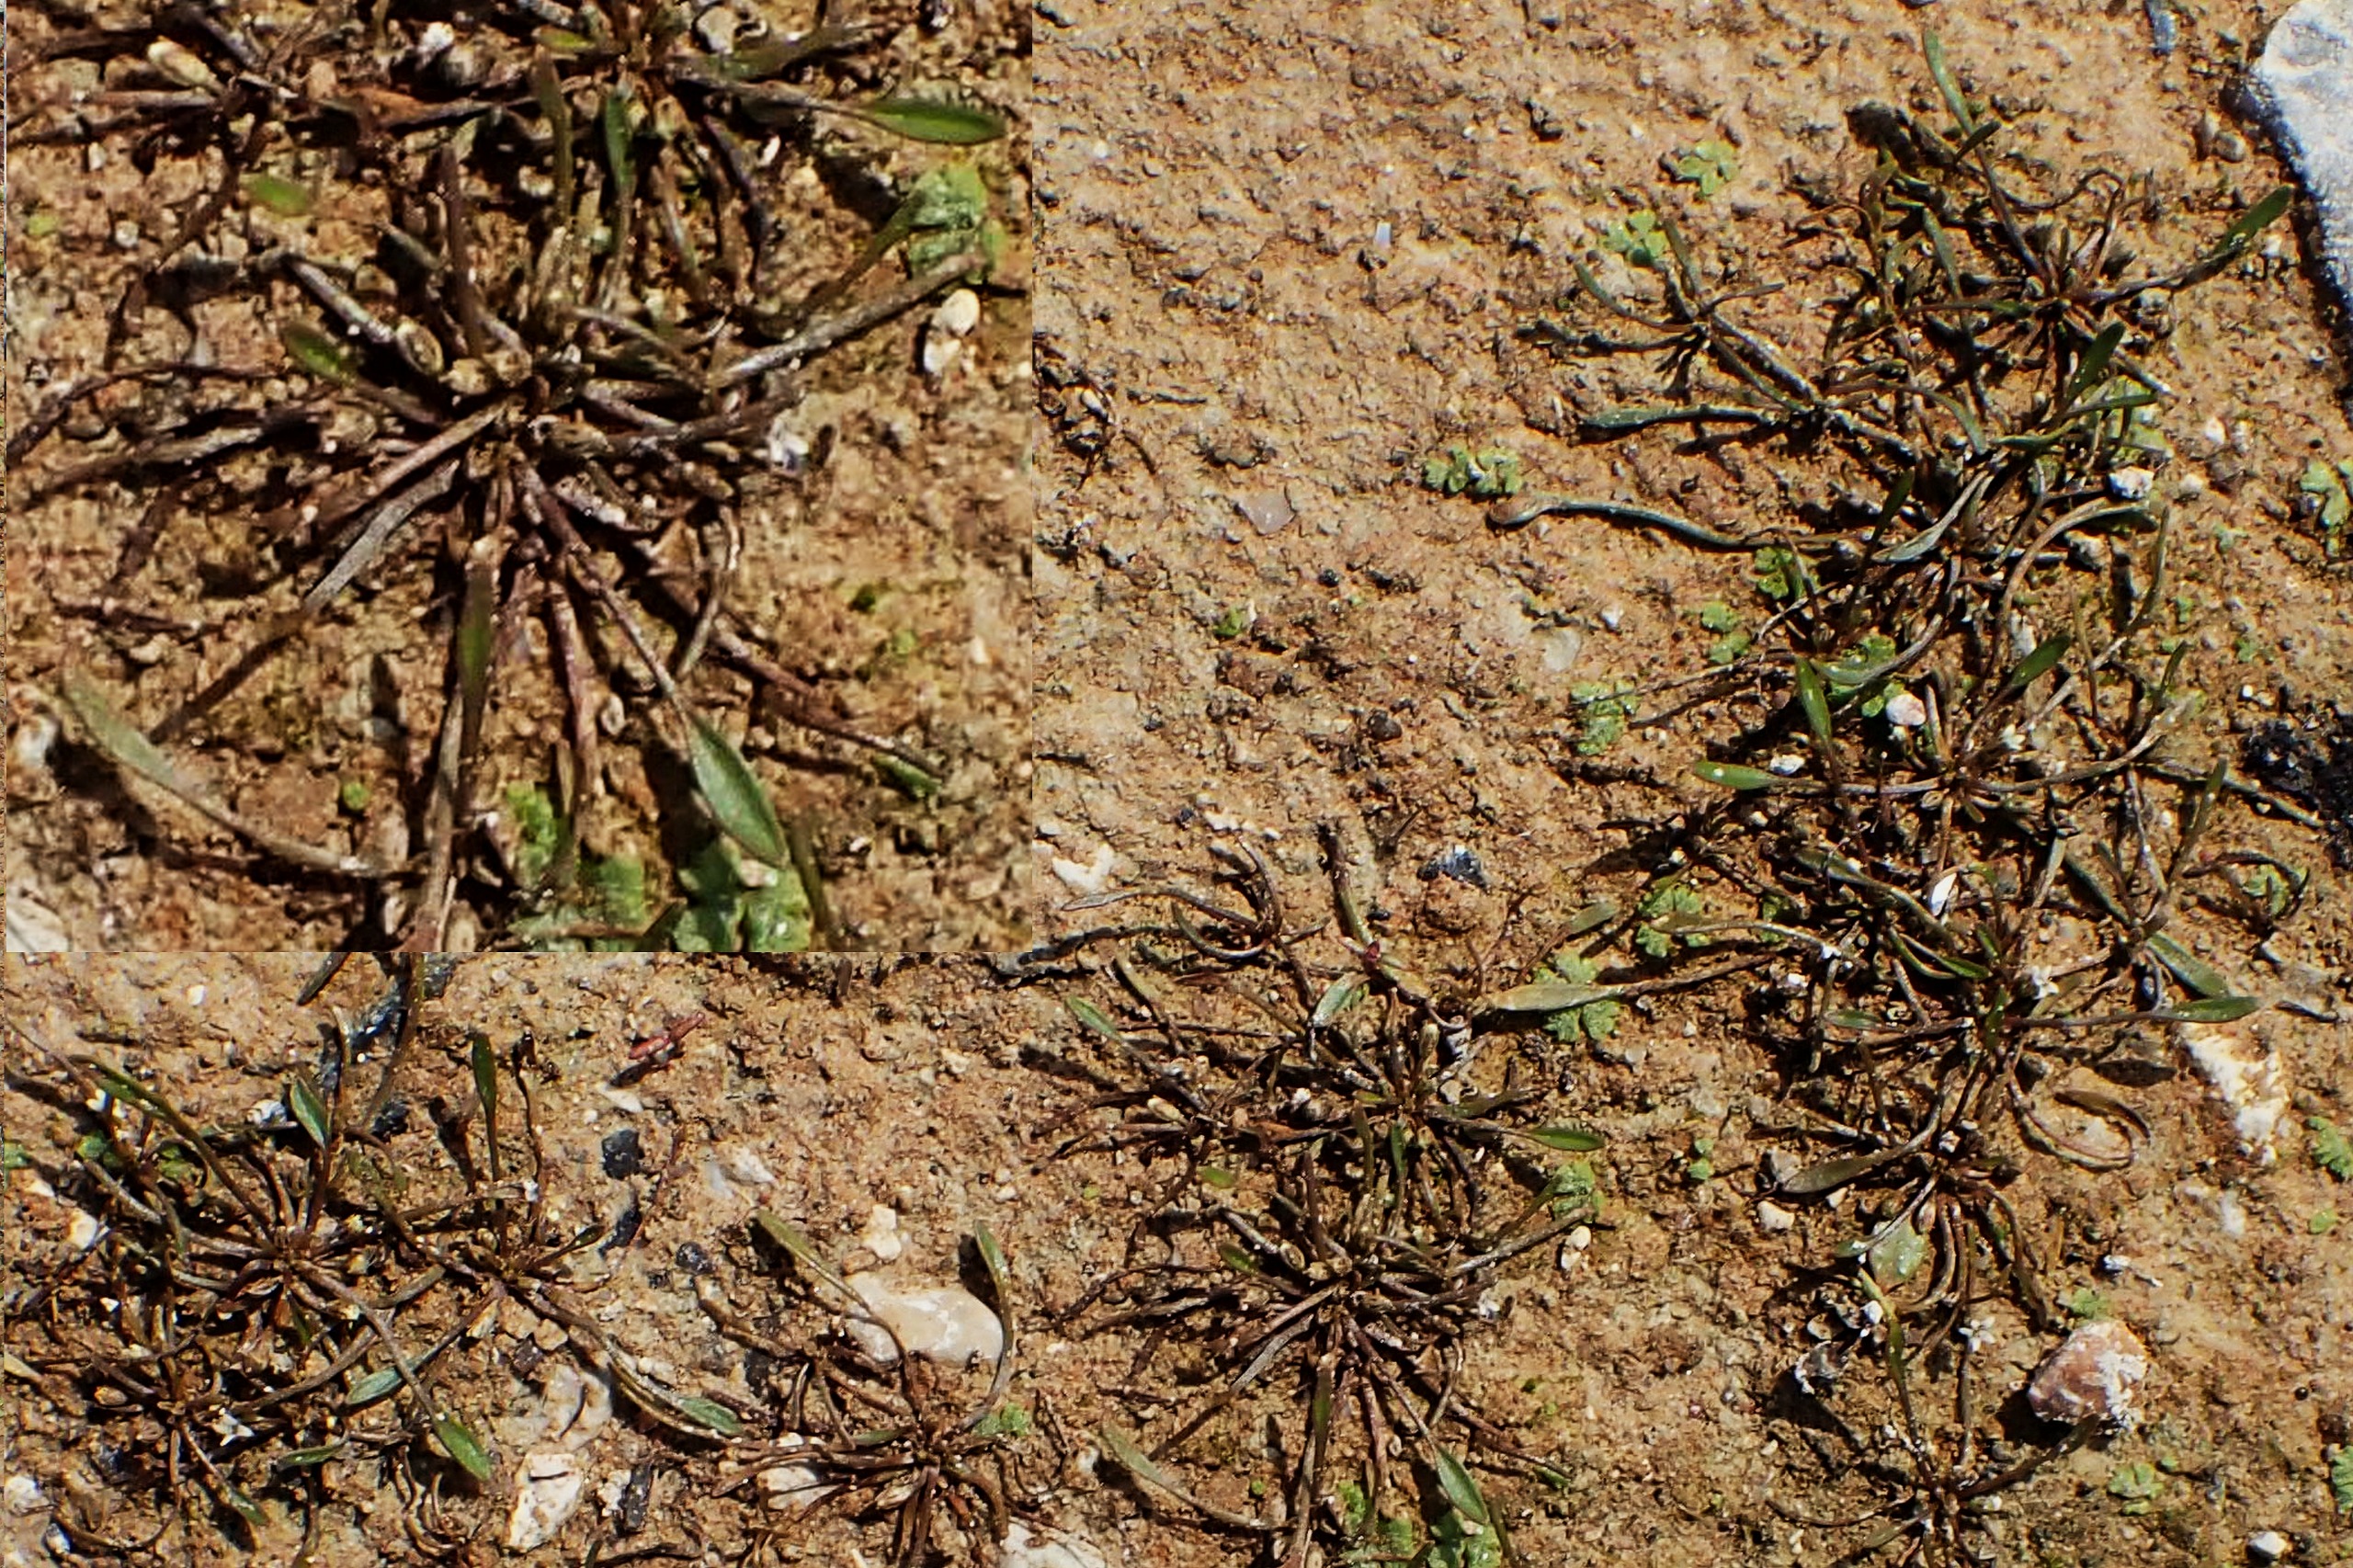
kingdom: Plantae
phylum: Tracheophyta
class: Magnoliopsida
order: Lamiales
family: Scrophulariaceae
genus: Limosella
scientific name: Limosella aquatica
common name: Dyndurt
